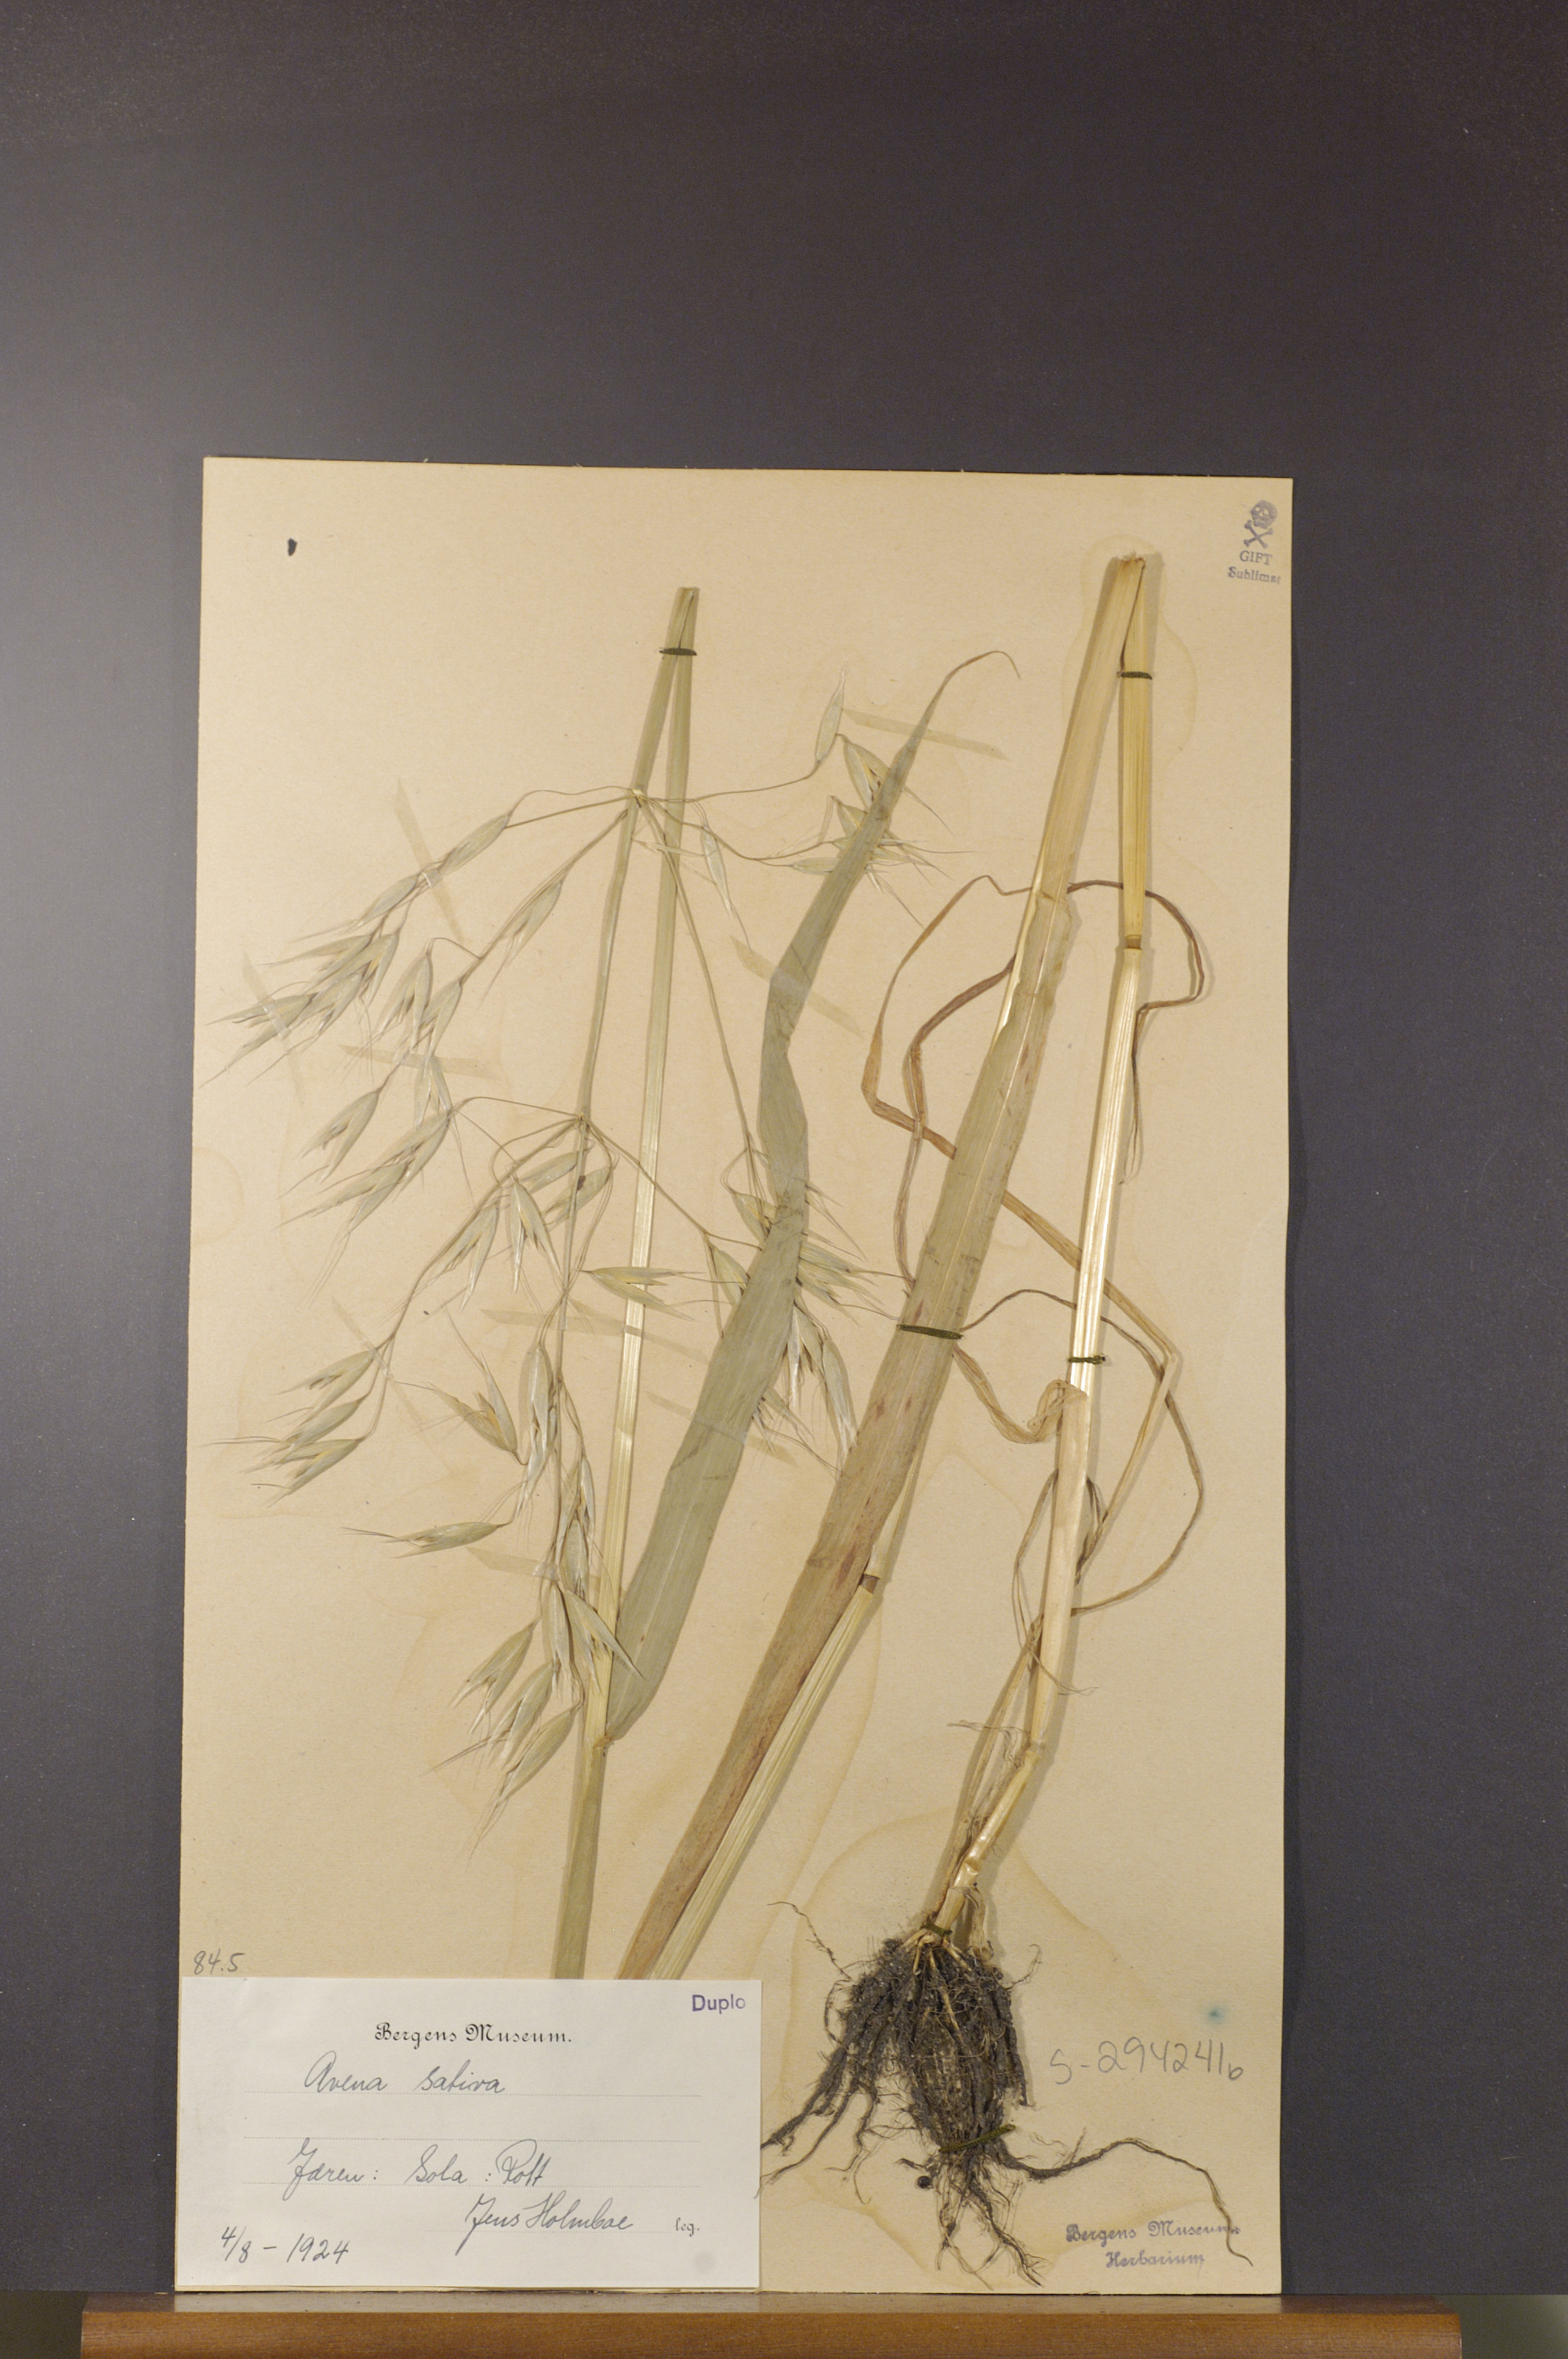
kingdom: Plantae
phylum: Tracheophyta
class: Liliopsida
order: Poales
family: Poaceae
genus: Avena
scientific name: Avena sativa
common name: Oat
